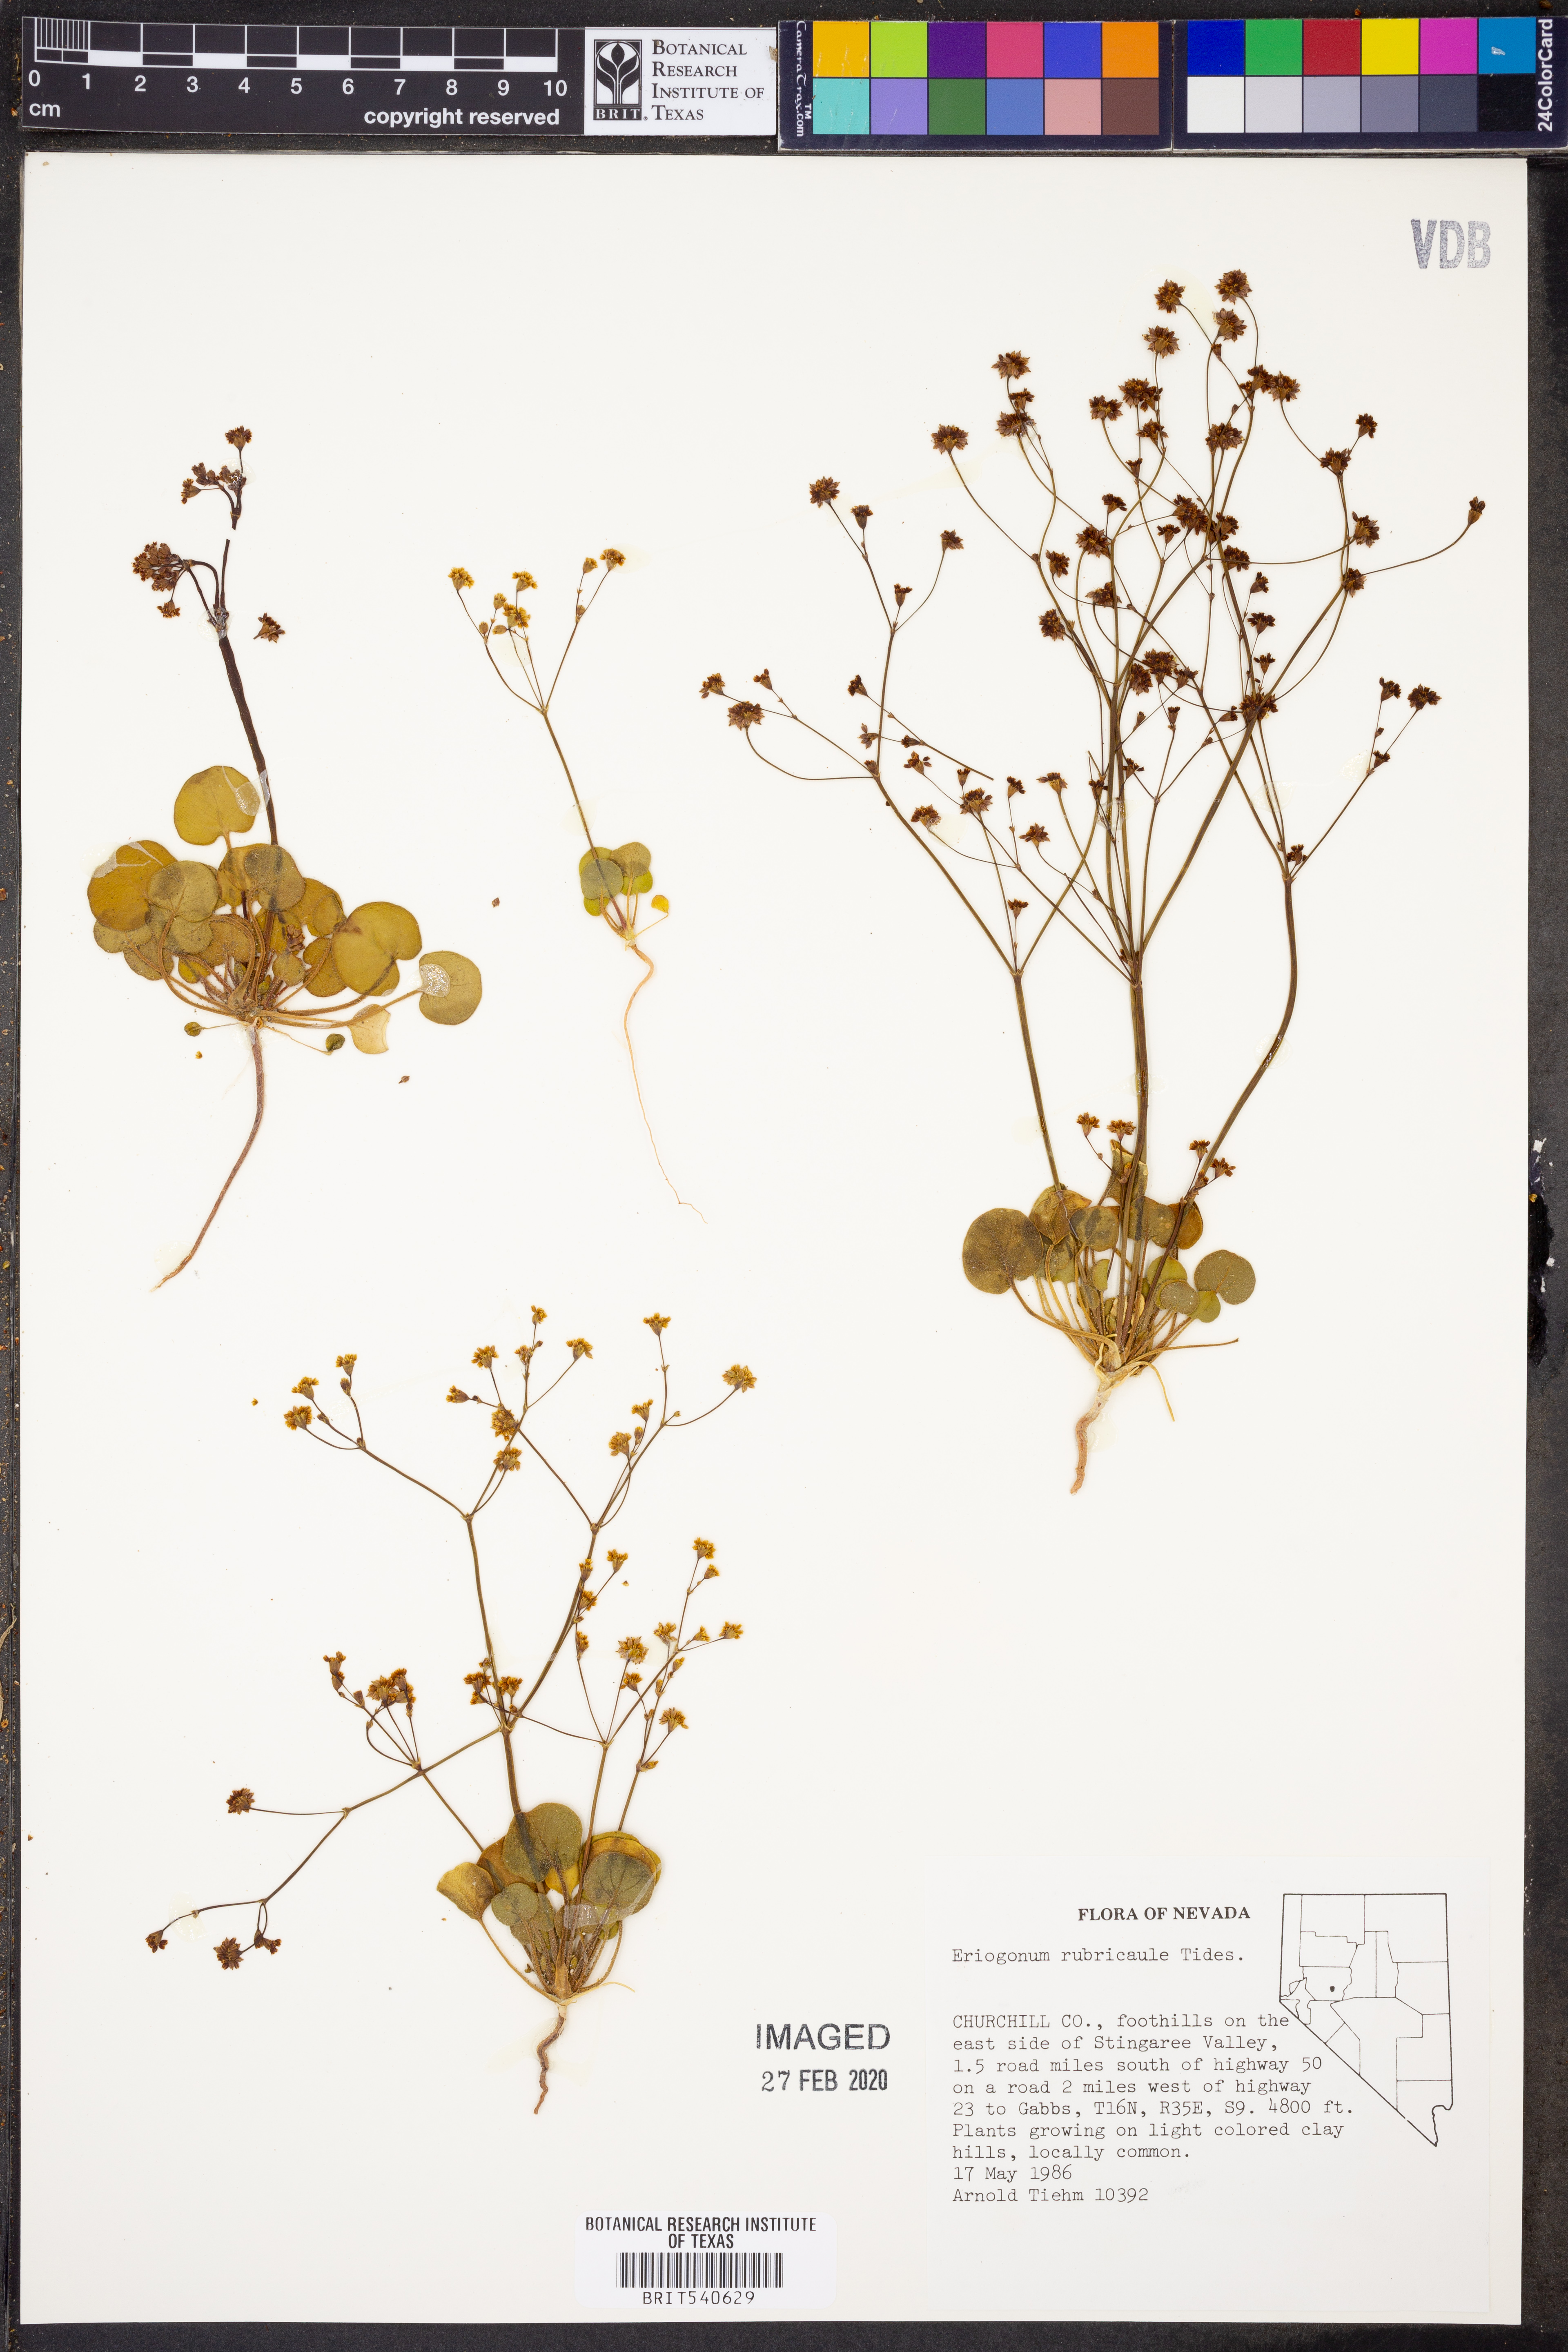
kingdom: Plantae
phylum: Tracheophyta
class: Magnoliopsida
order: Caryophyllales
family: Polygonaceae
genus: Eriogonum
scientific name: Eriogonum rubricaule
